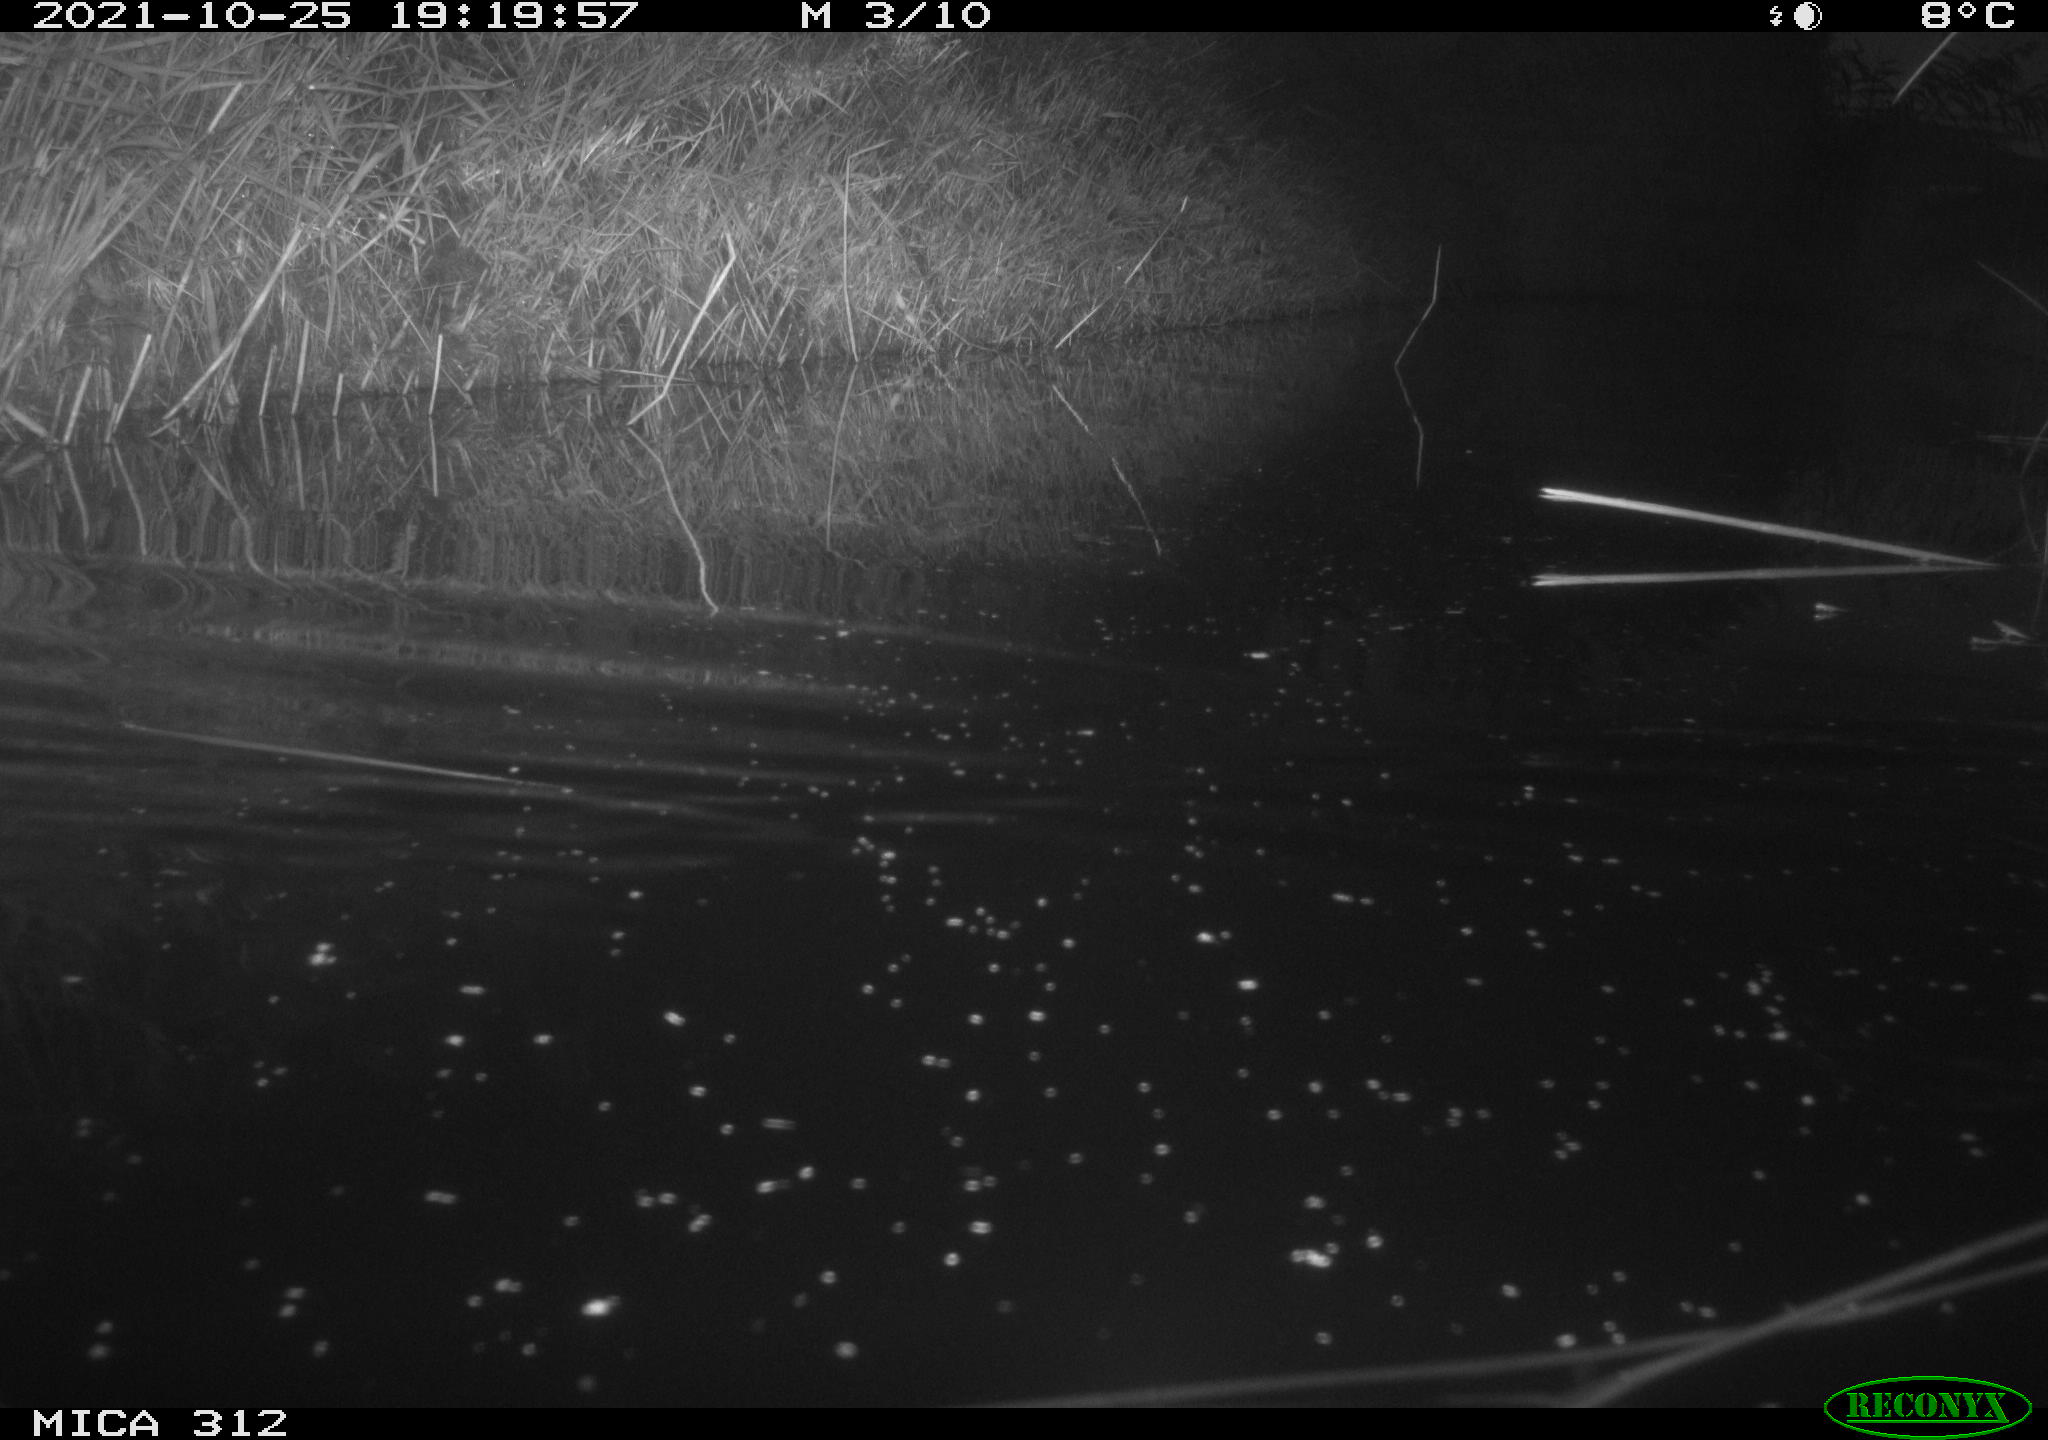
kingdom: Animalia
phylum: Chordata
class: Mammalia
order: Rodentia
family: Muridae
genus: Rattus
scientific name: Rattus norvegicus
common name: Brown rat
